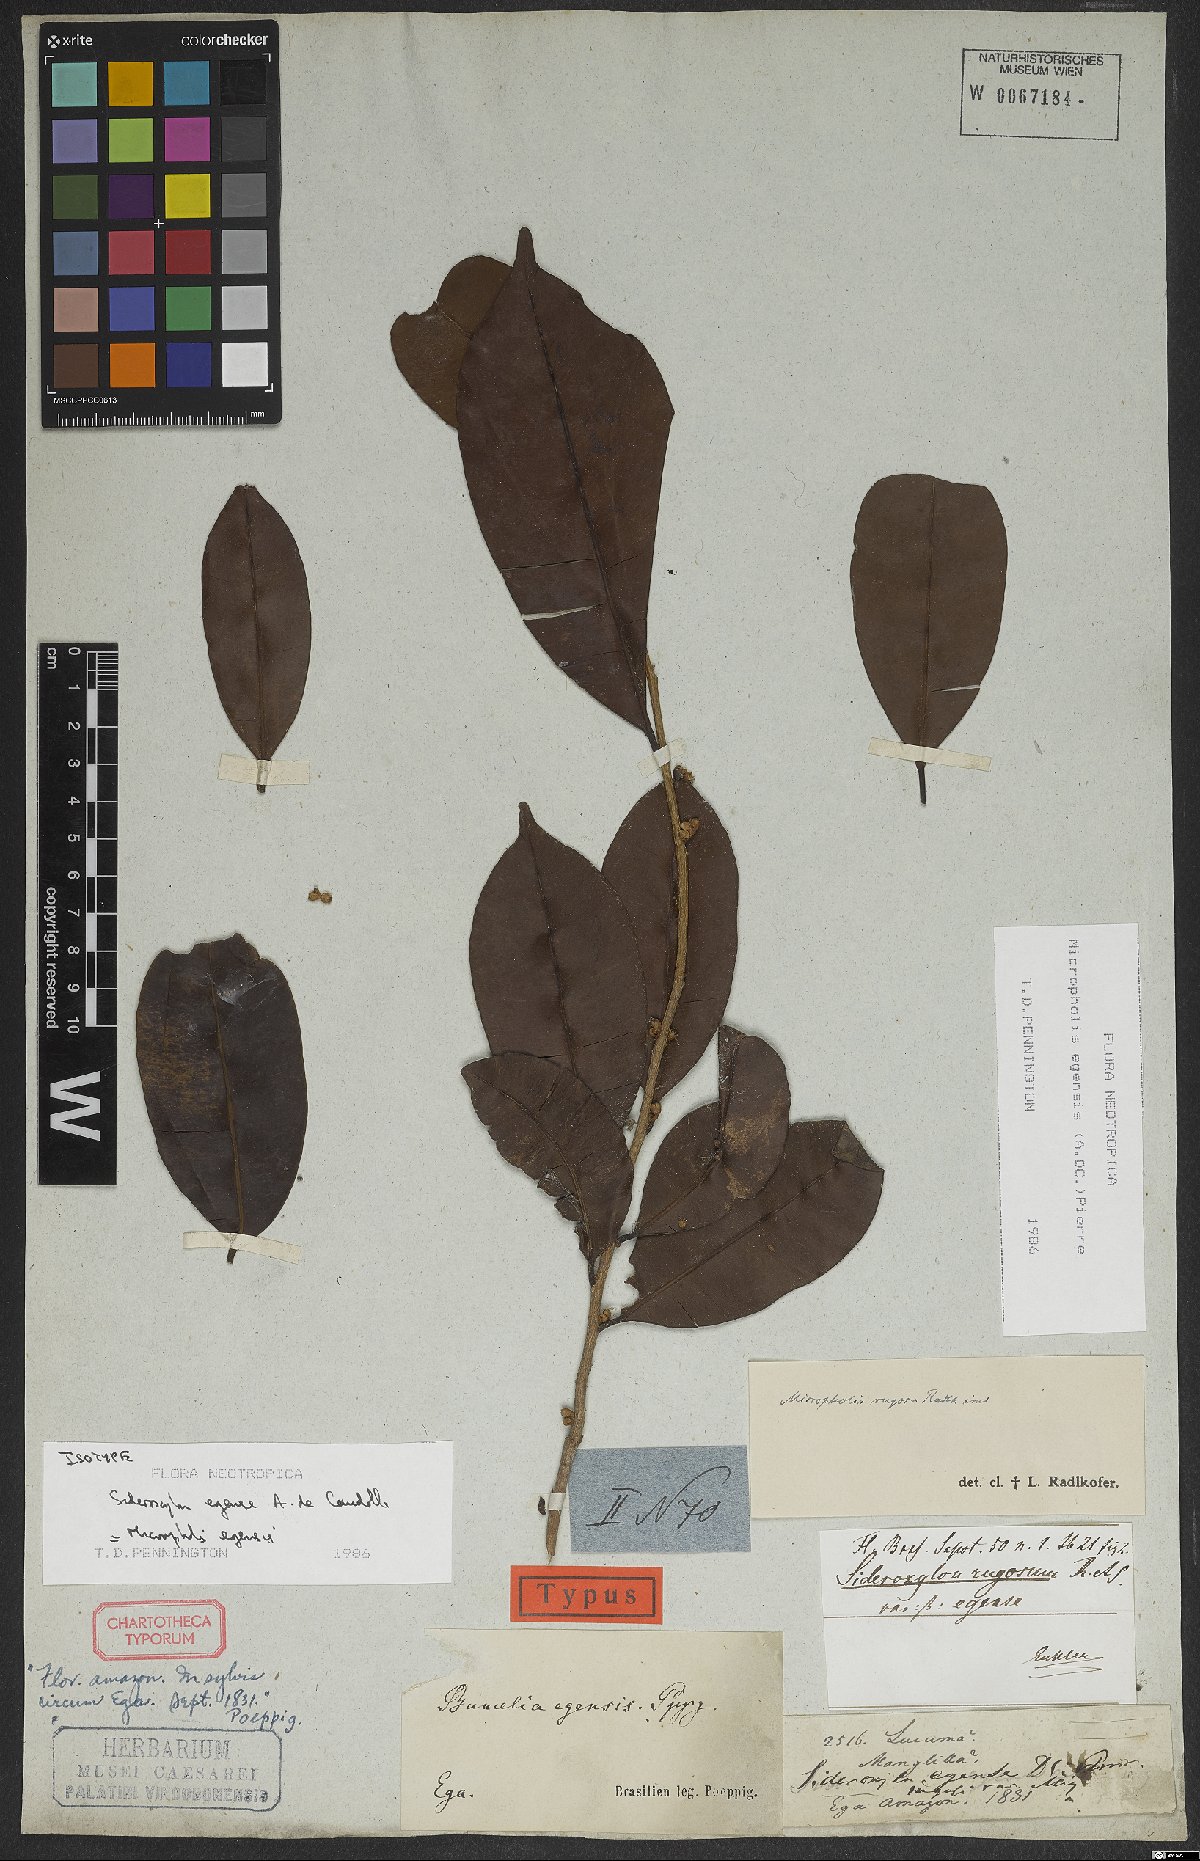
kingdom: Plantae
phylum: Tracheophyta
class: Magnoliopsida
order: Ericales
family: Sapotaceae
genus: Micropholis
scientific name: Micropholis egensis
